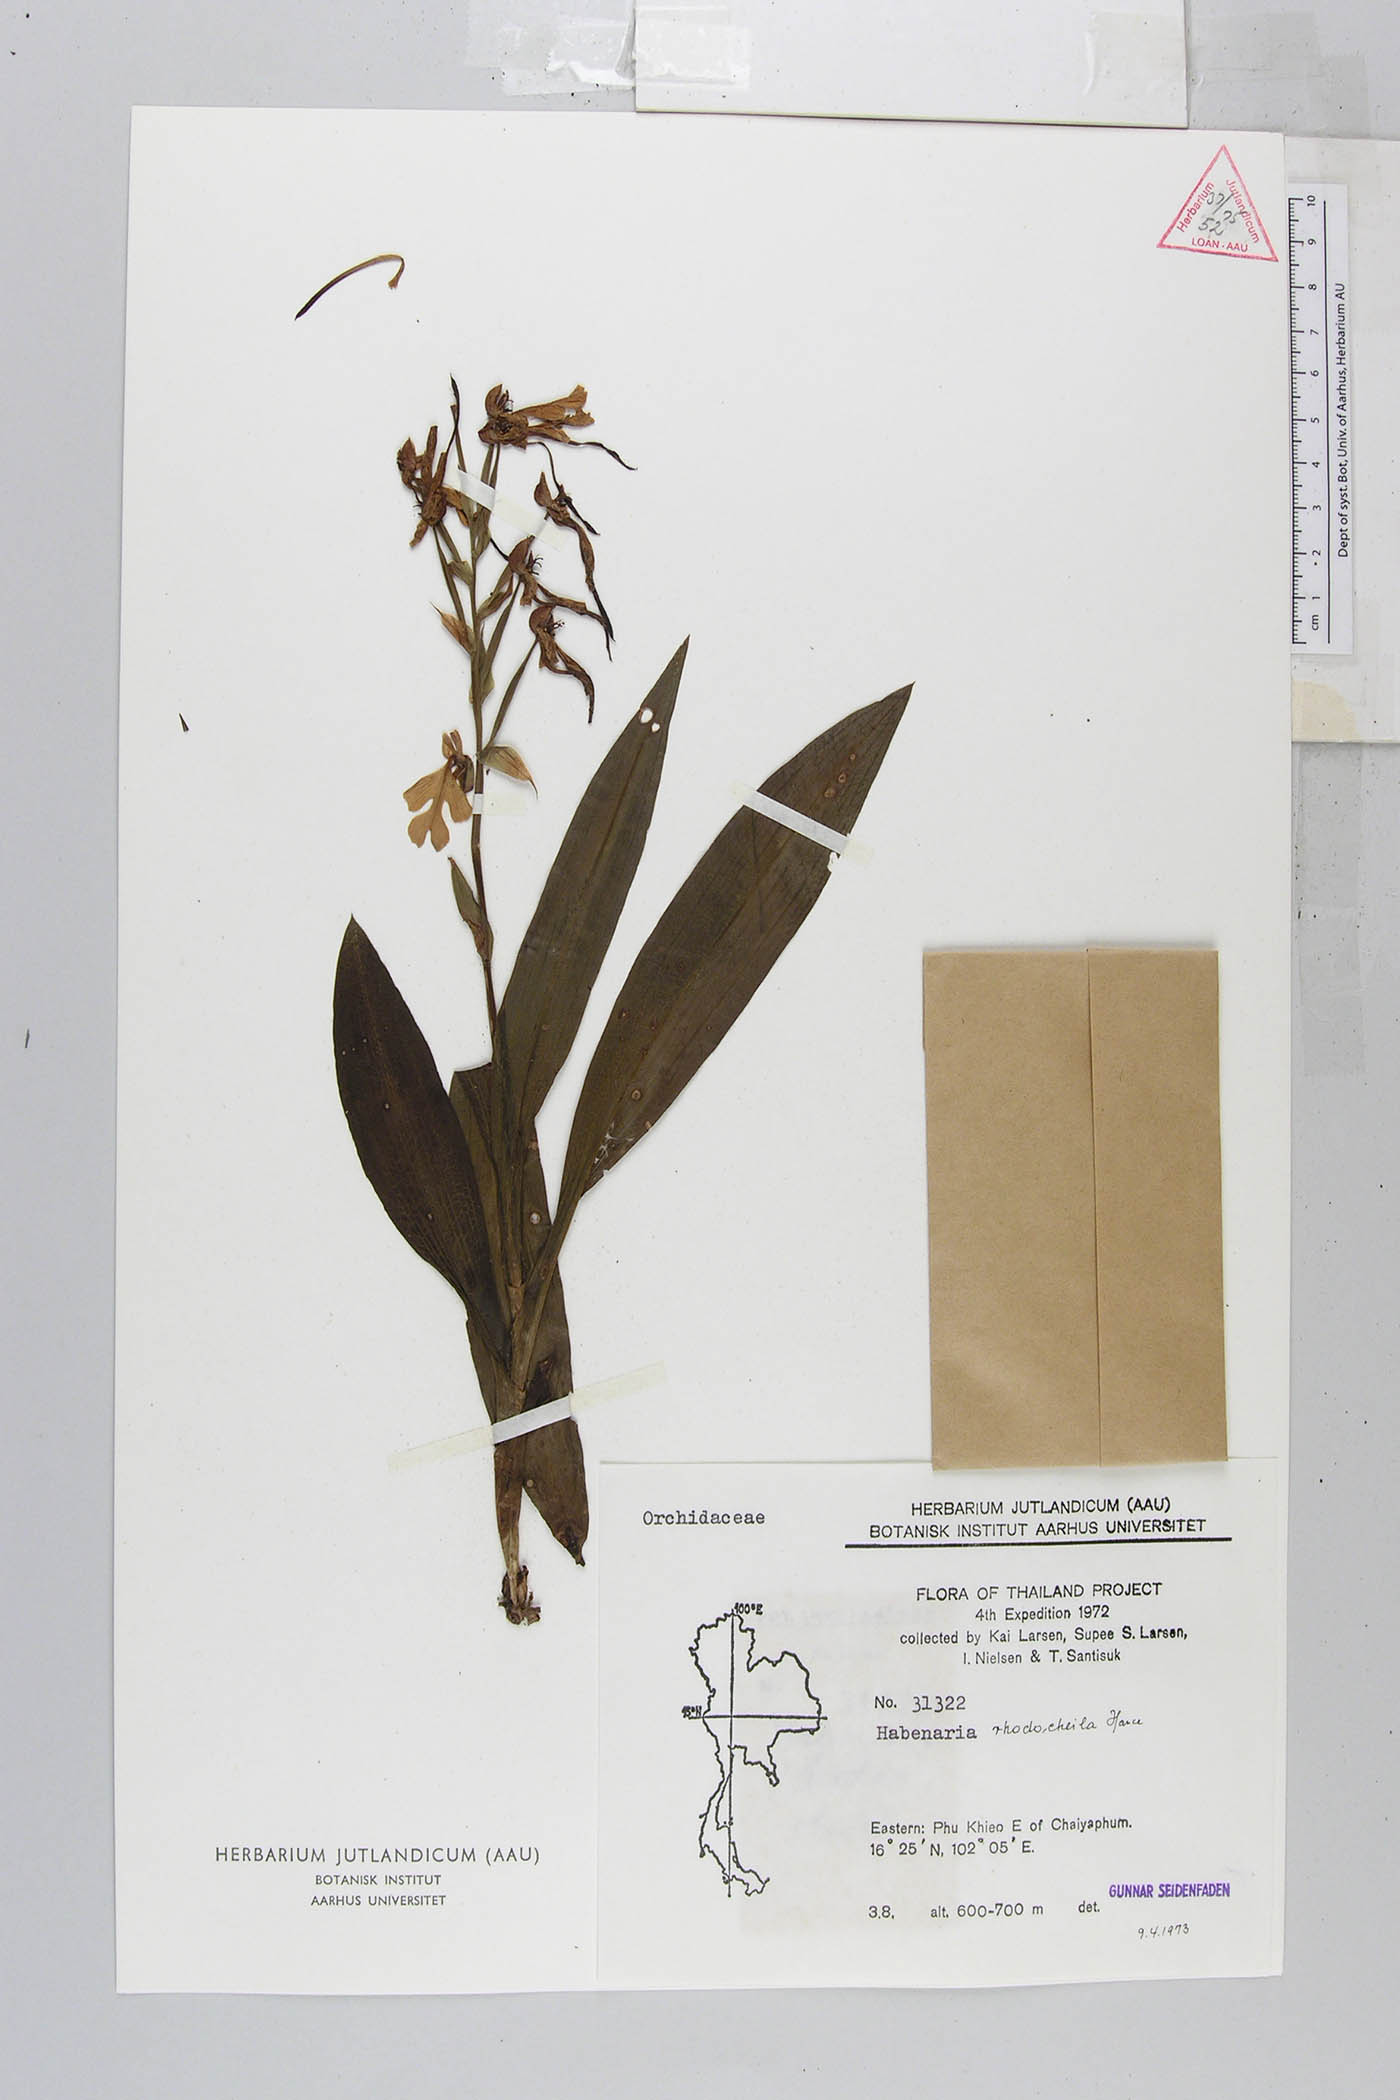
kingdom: Plantae
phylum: Tracheophyta
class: Liliopsida
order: Asparagales
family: Orchidaceae
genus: Habenaria
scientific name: Habenaria rhodocheila
